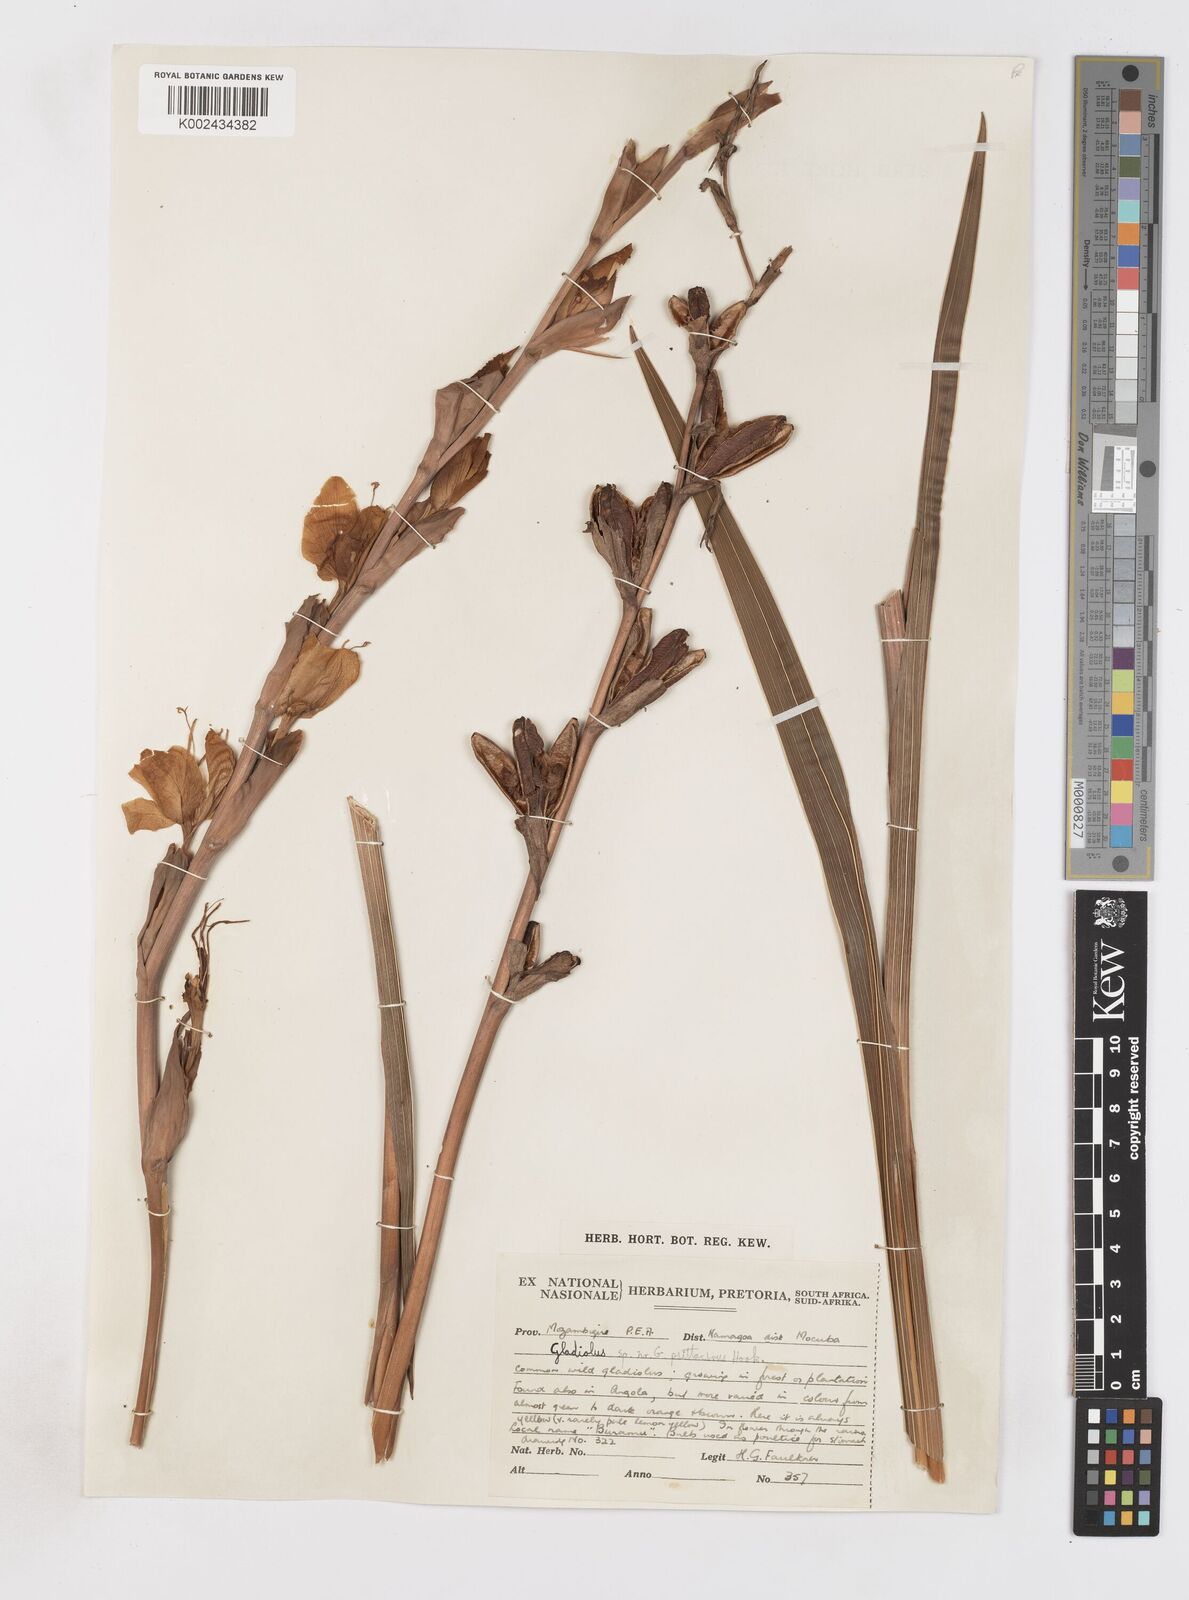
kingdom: Plantae
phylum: Tracheophyta
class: Liliopsida
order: Asparagales
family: Iridaceae
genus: Gladiolus
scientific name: Gladiolus dalenii
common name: Cornflag
